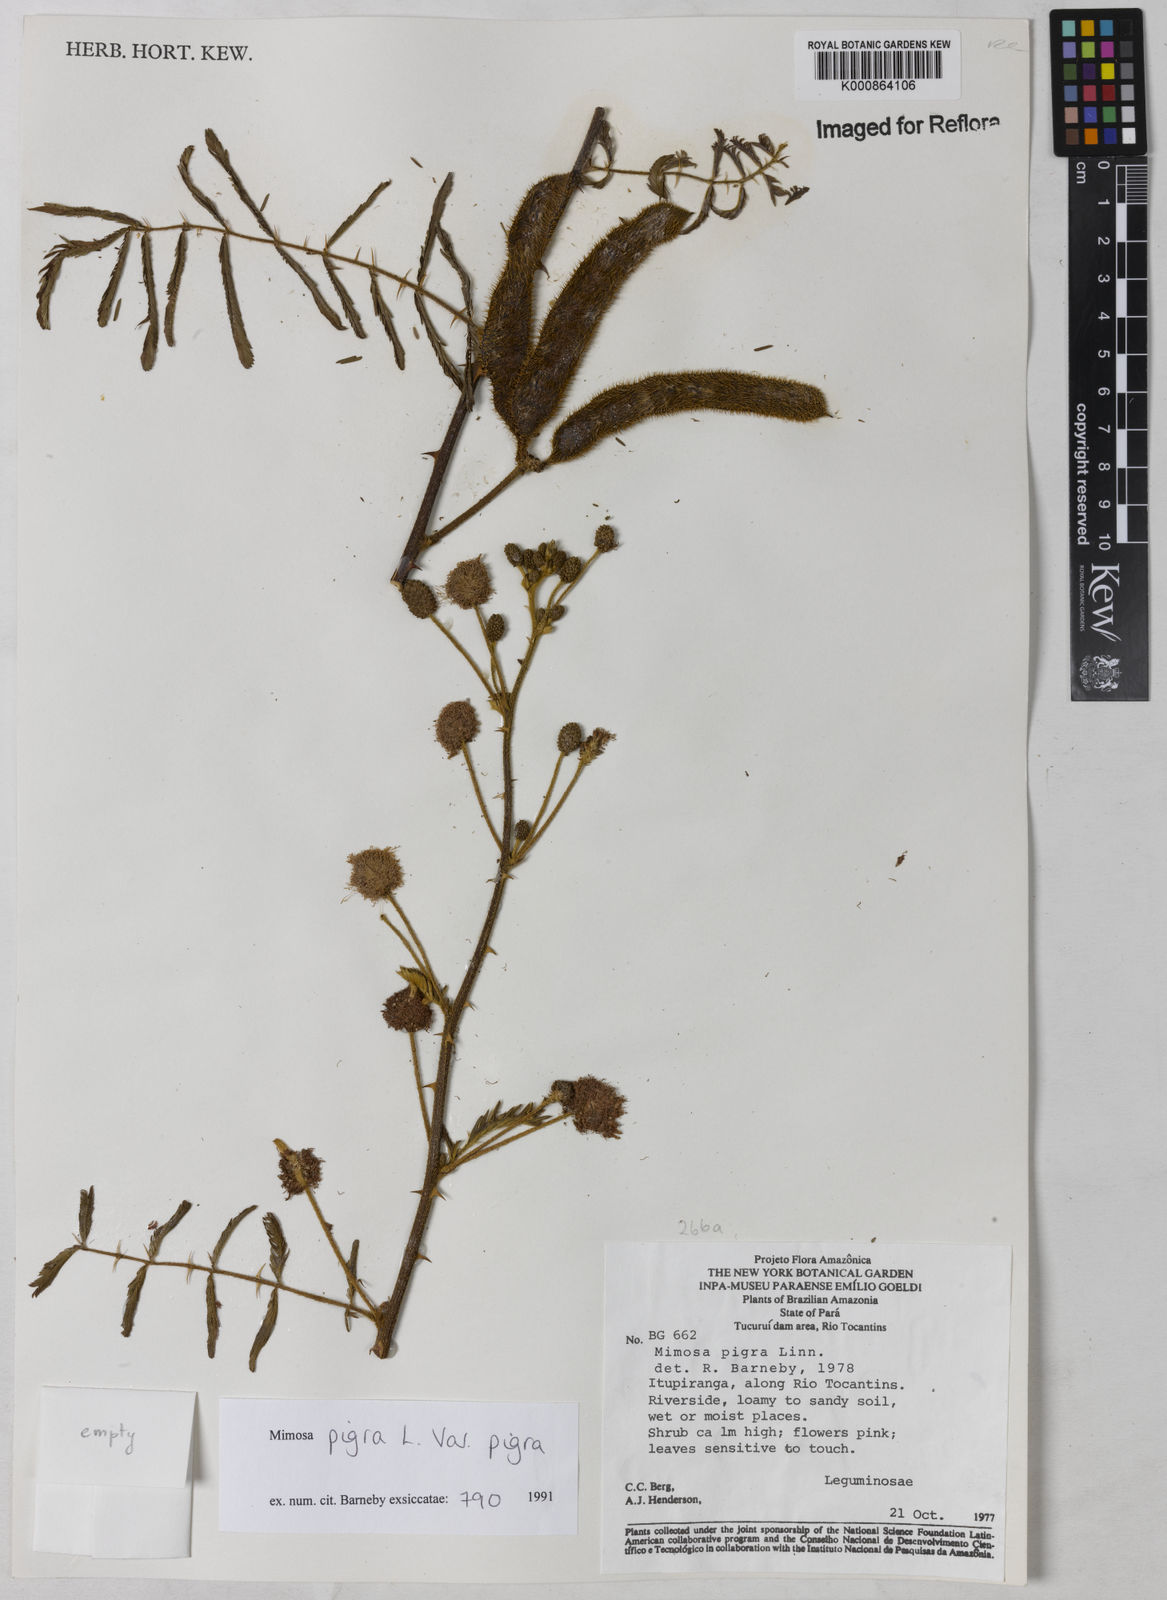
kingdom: Plantae
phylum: Tracheophyta
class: Magnoliopsida
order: Fabales
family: Fabaceae
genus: Mimosa
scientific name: Mimosa pigra
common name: Black mimosa
